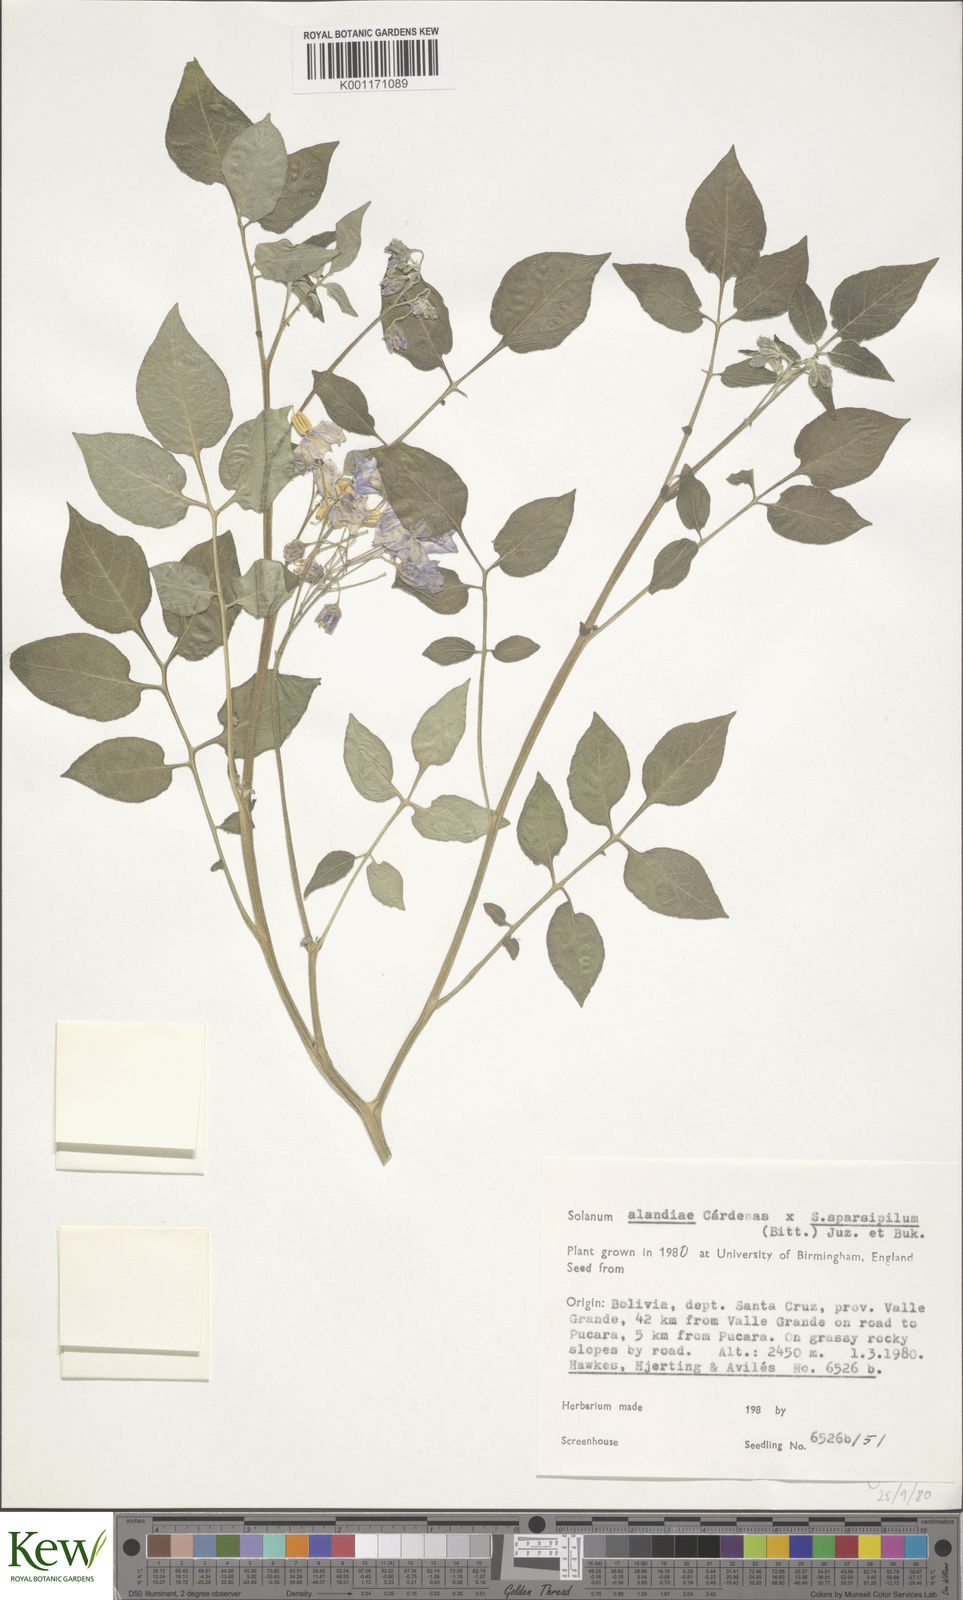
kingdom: Plantae
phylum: Tracheophyta
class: Magnoliopsida
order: Solanales
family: Solanaceae
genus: Solanum
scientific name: Solanum
